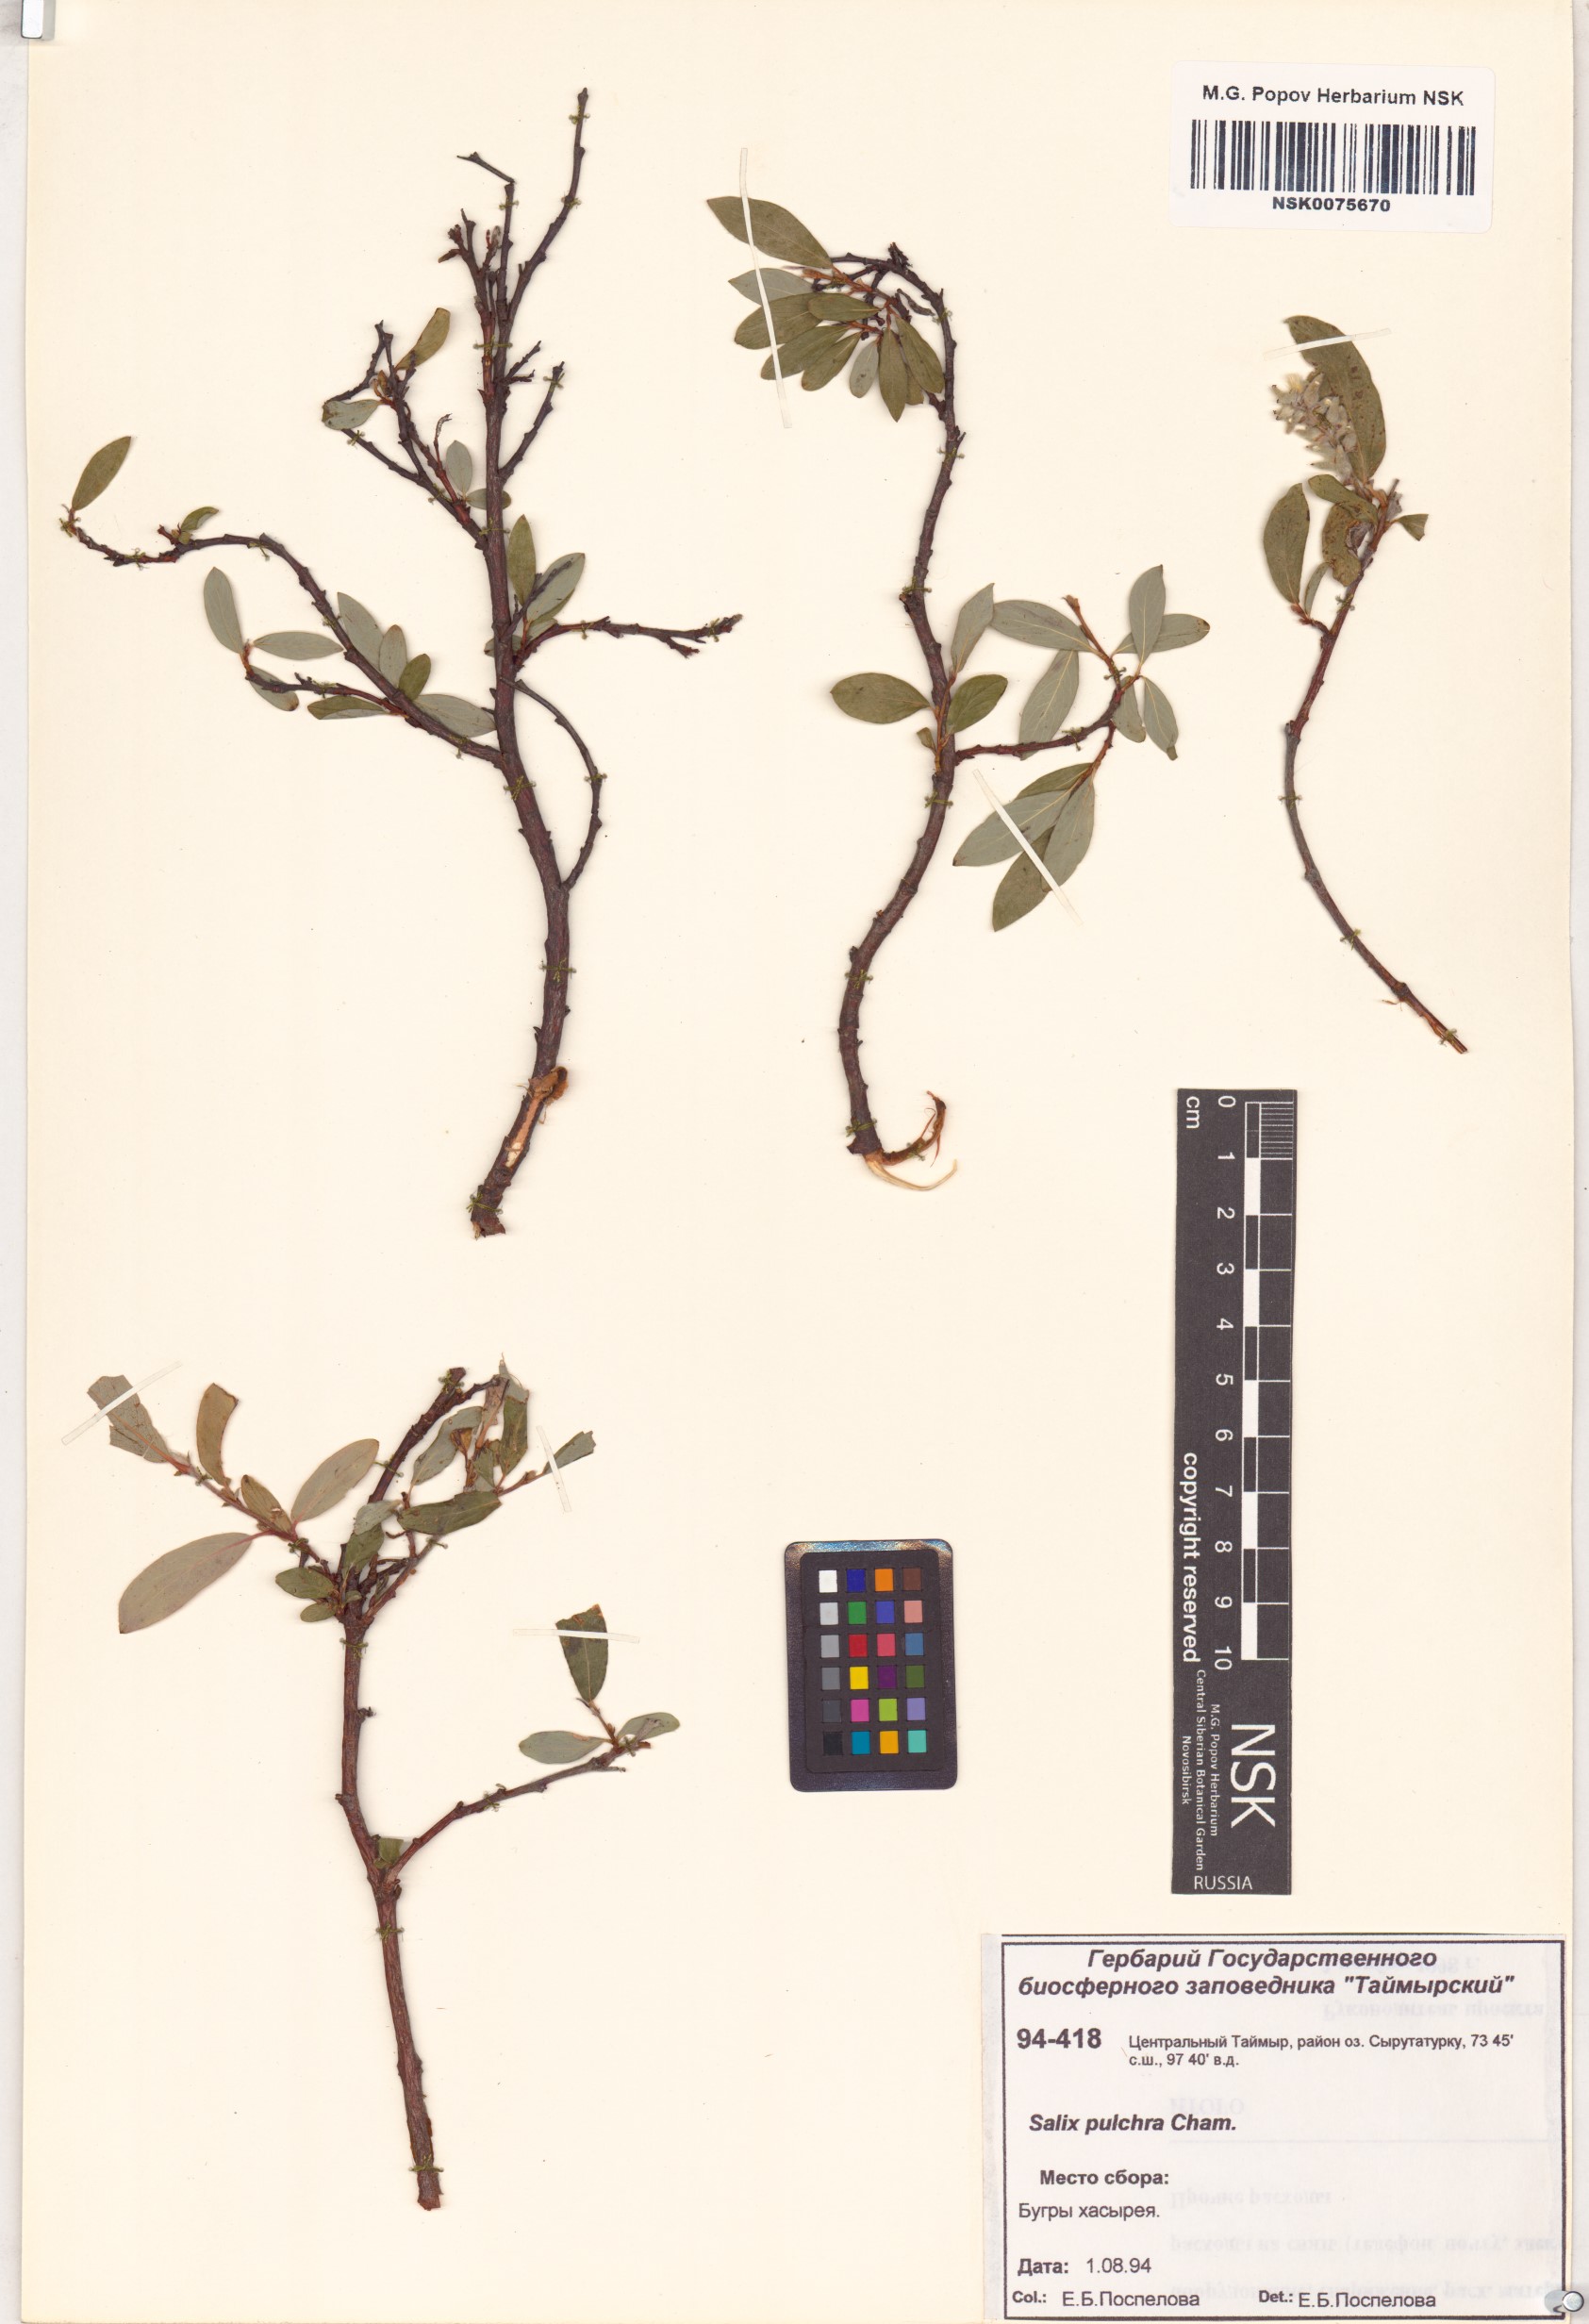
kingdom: Plantae
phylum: Tracheophyta
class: Magnoliopsida
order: Malpighiales
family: Salicaceae
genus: Salix
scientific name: Salix pulchra
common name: Diamond-leaved willow
